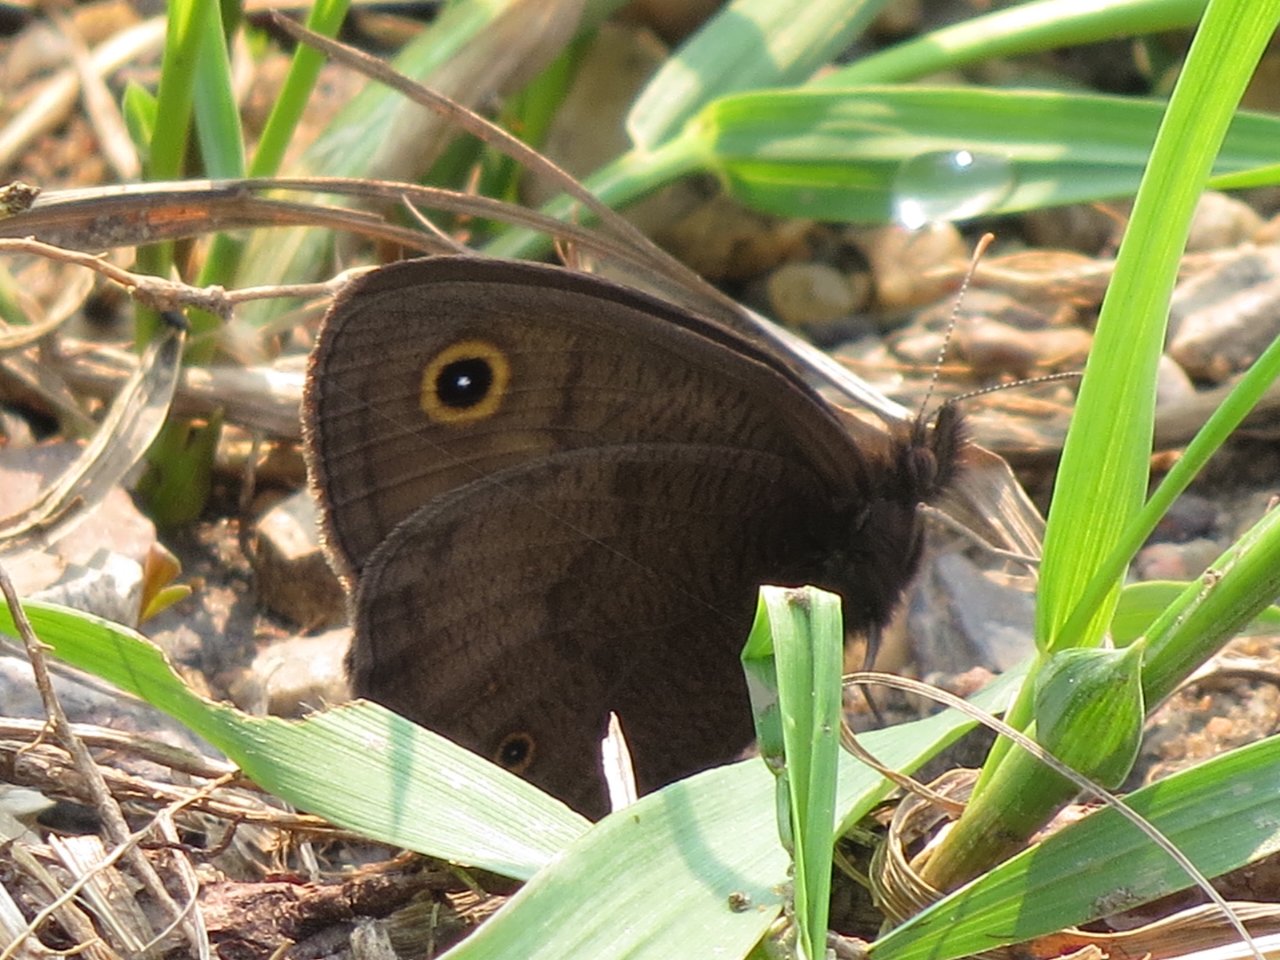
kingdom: Animalia
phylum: Arthropoda
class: Insecta
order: Lepidoptera
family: Nymphalidae
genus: Cercyonis
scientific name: Cercyonis pegala
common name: Common Wood-Nymph
